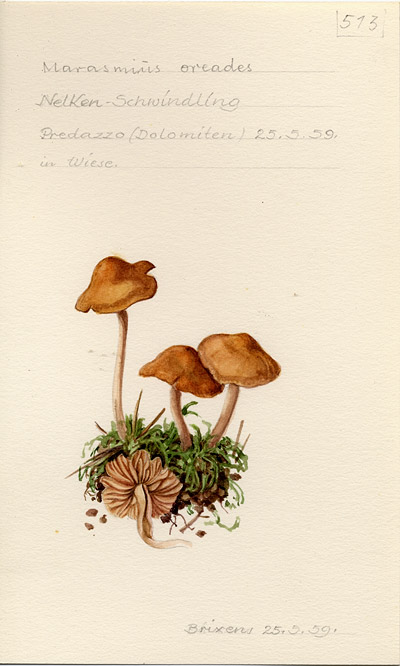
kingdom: Fungi
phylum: Basidiomycota
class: Agaricomycetes
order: Agaricales
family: Marasmiaceae
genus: Marasmius
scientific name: Marasmius oreades
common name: Fairy ring champignon
